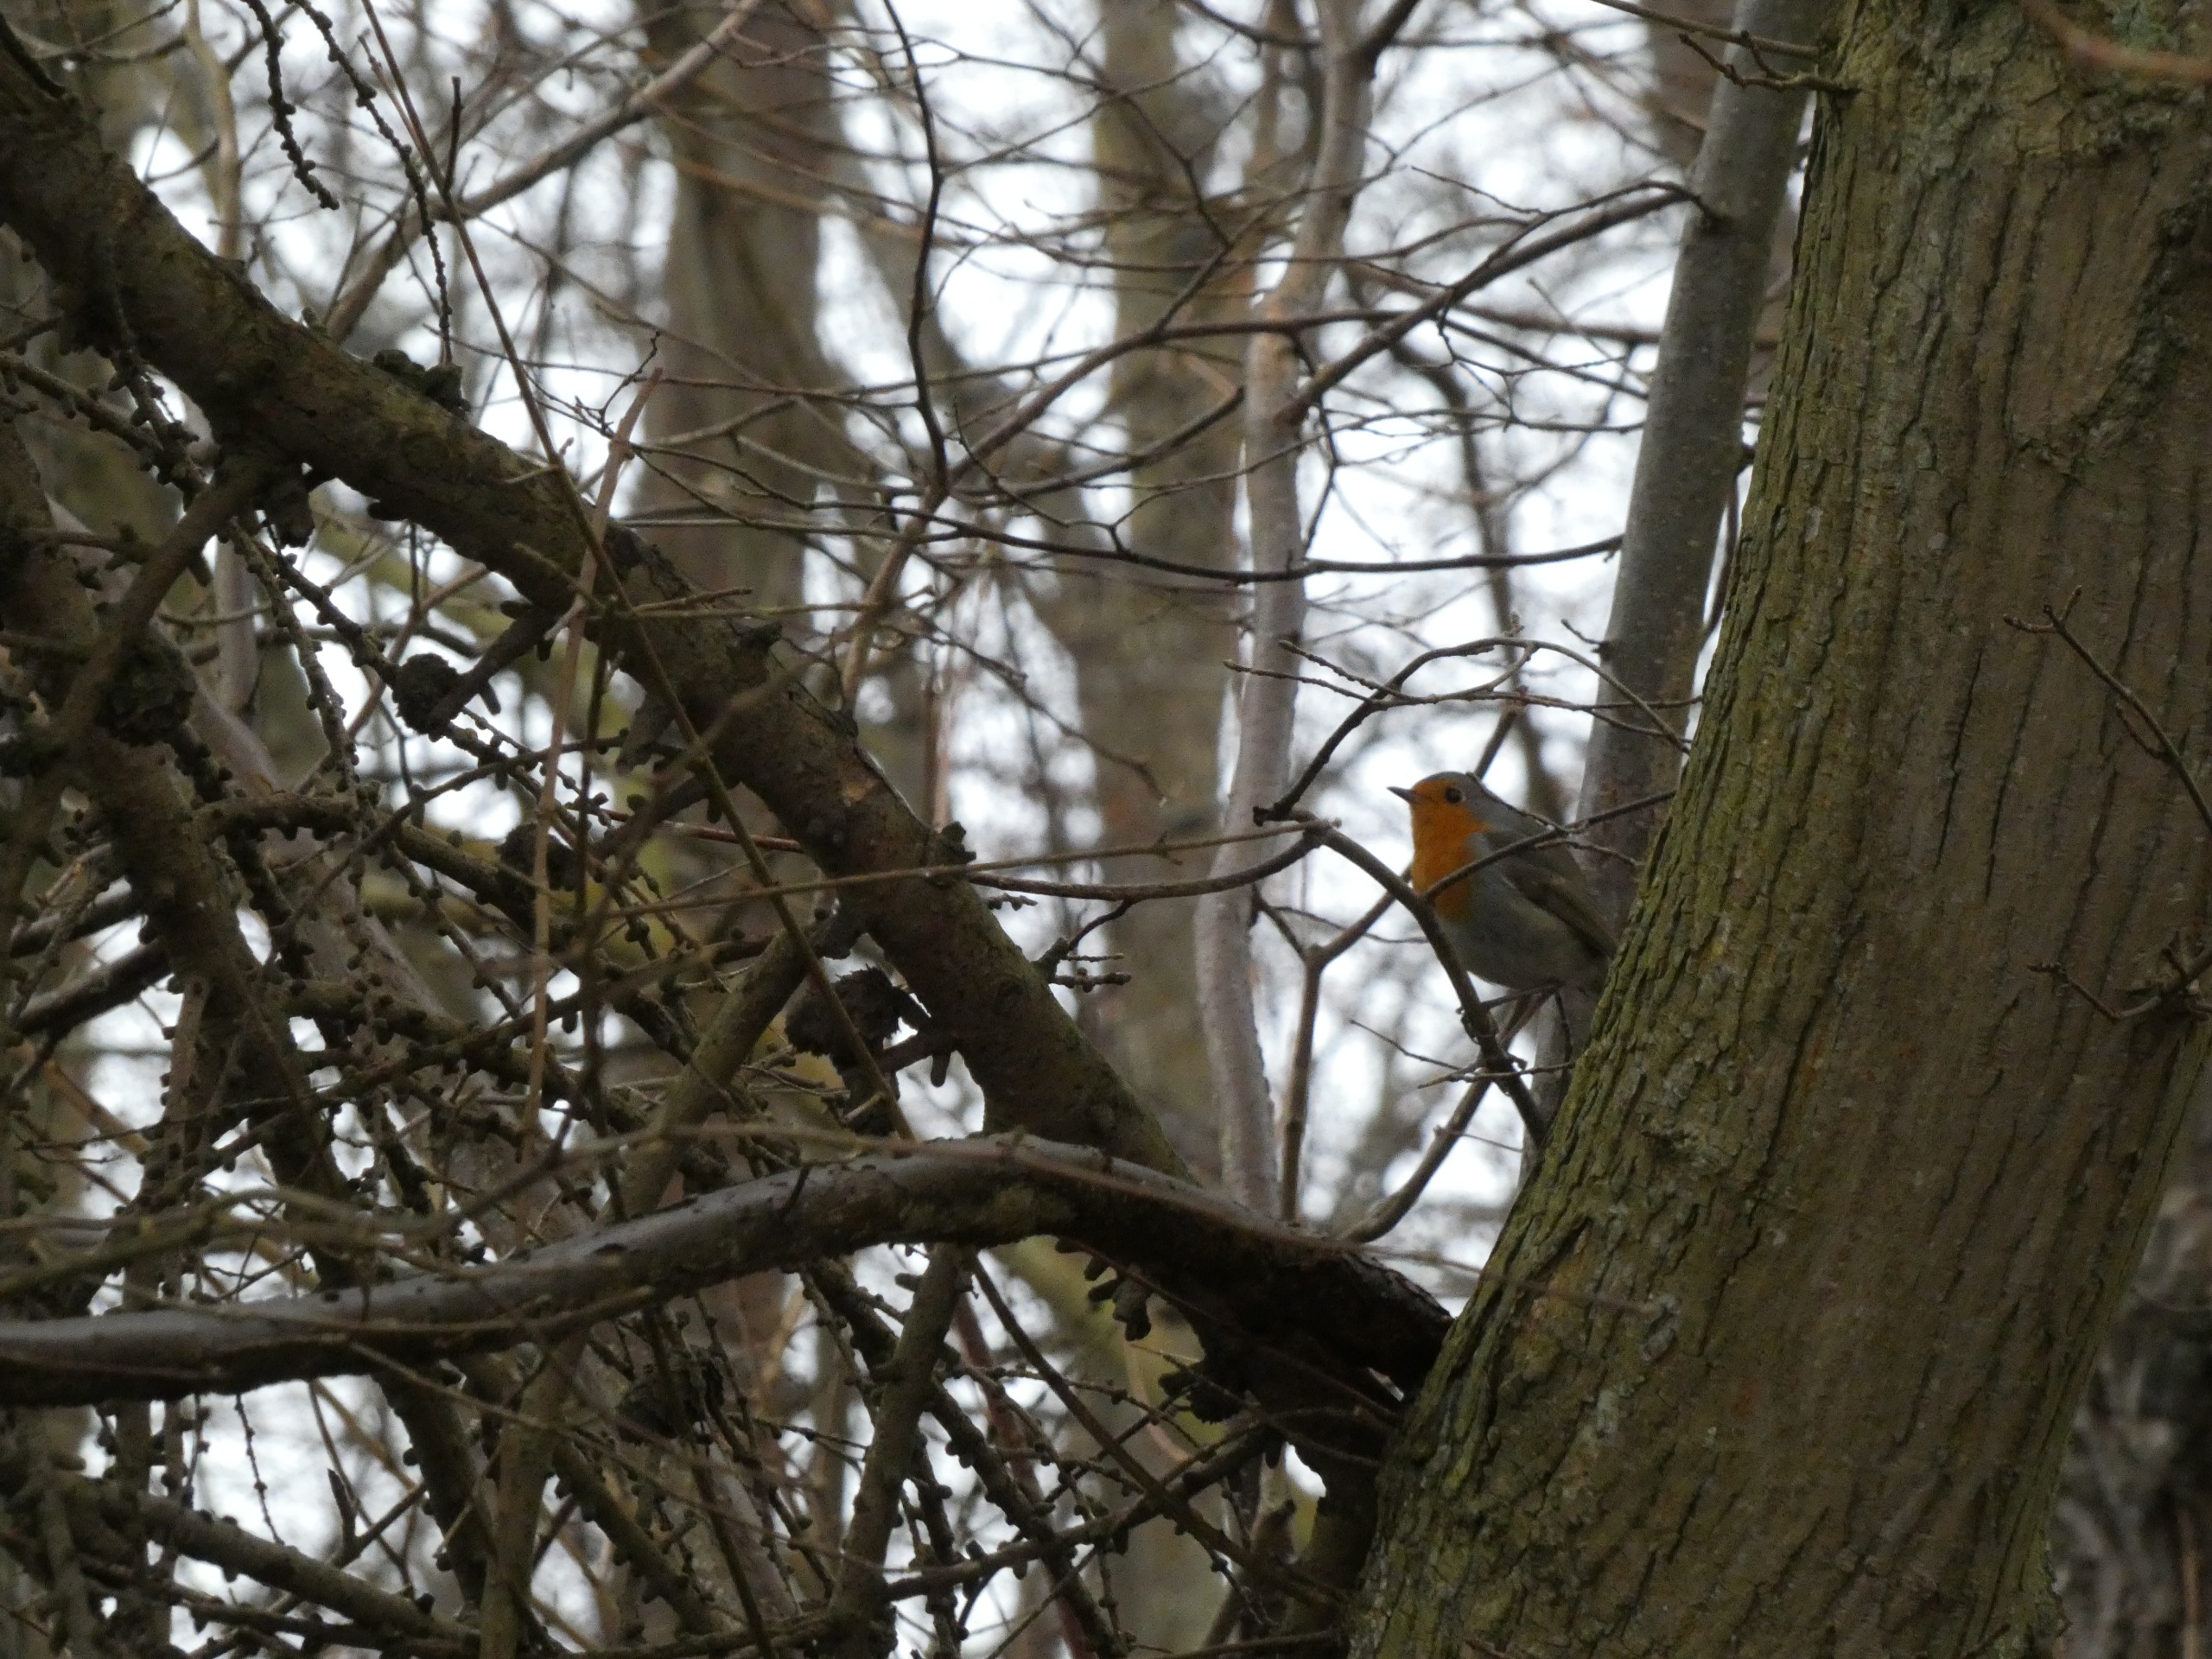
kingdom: Animalia
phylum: Chordata
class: Aves
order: Passeriformes
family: Muscicapidae
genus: Erithacus
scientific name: Erithacus rubecula
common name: Rødhals/rødkælk
